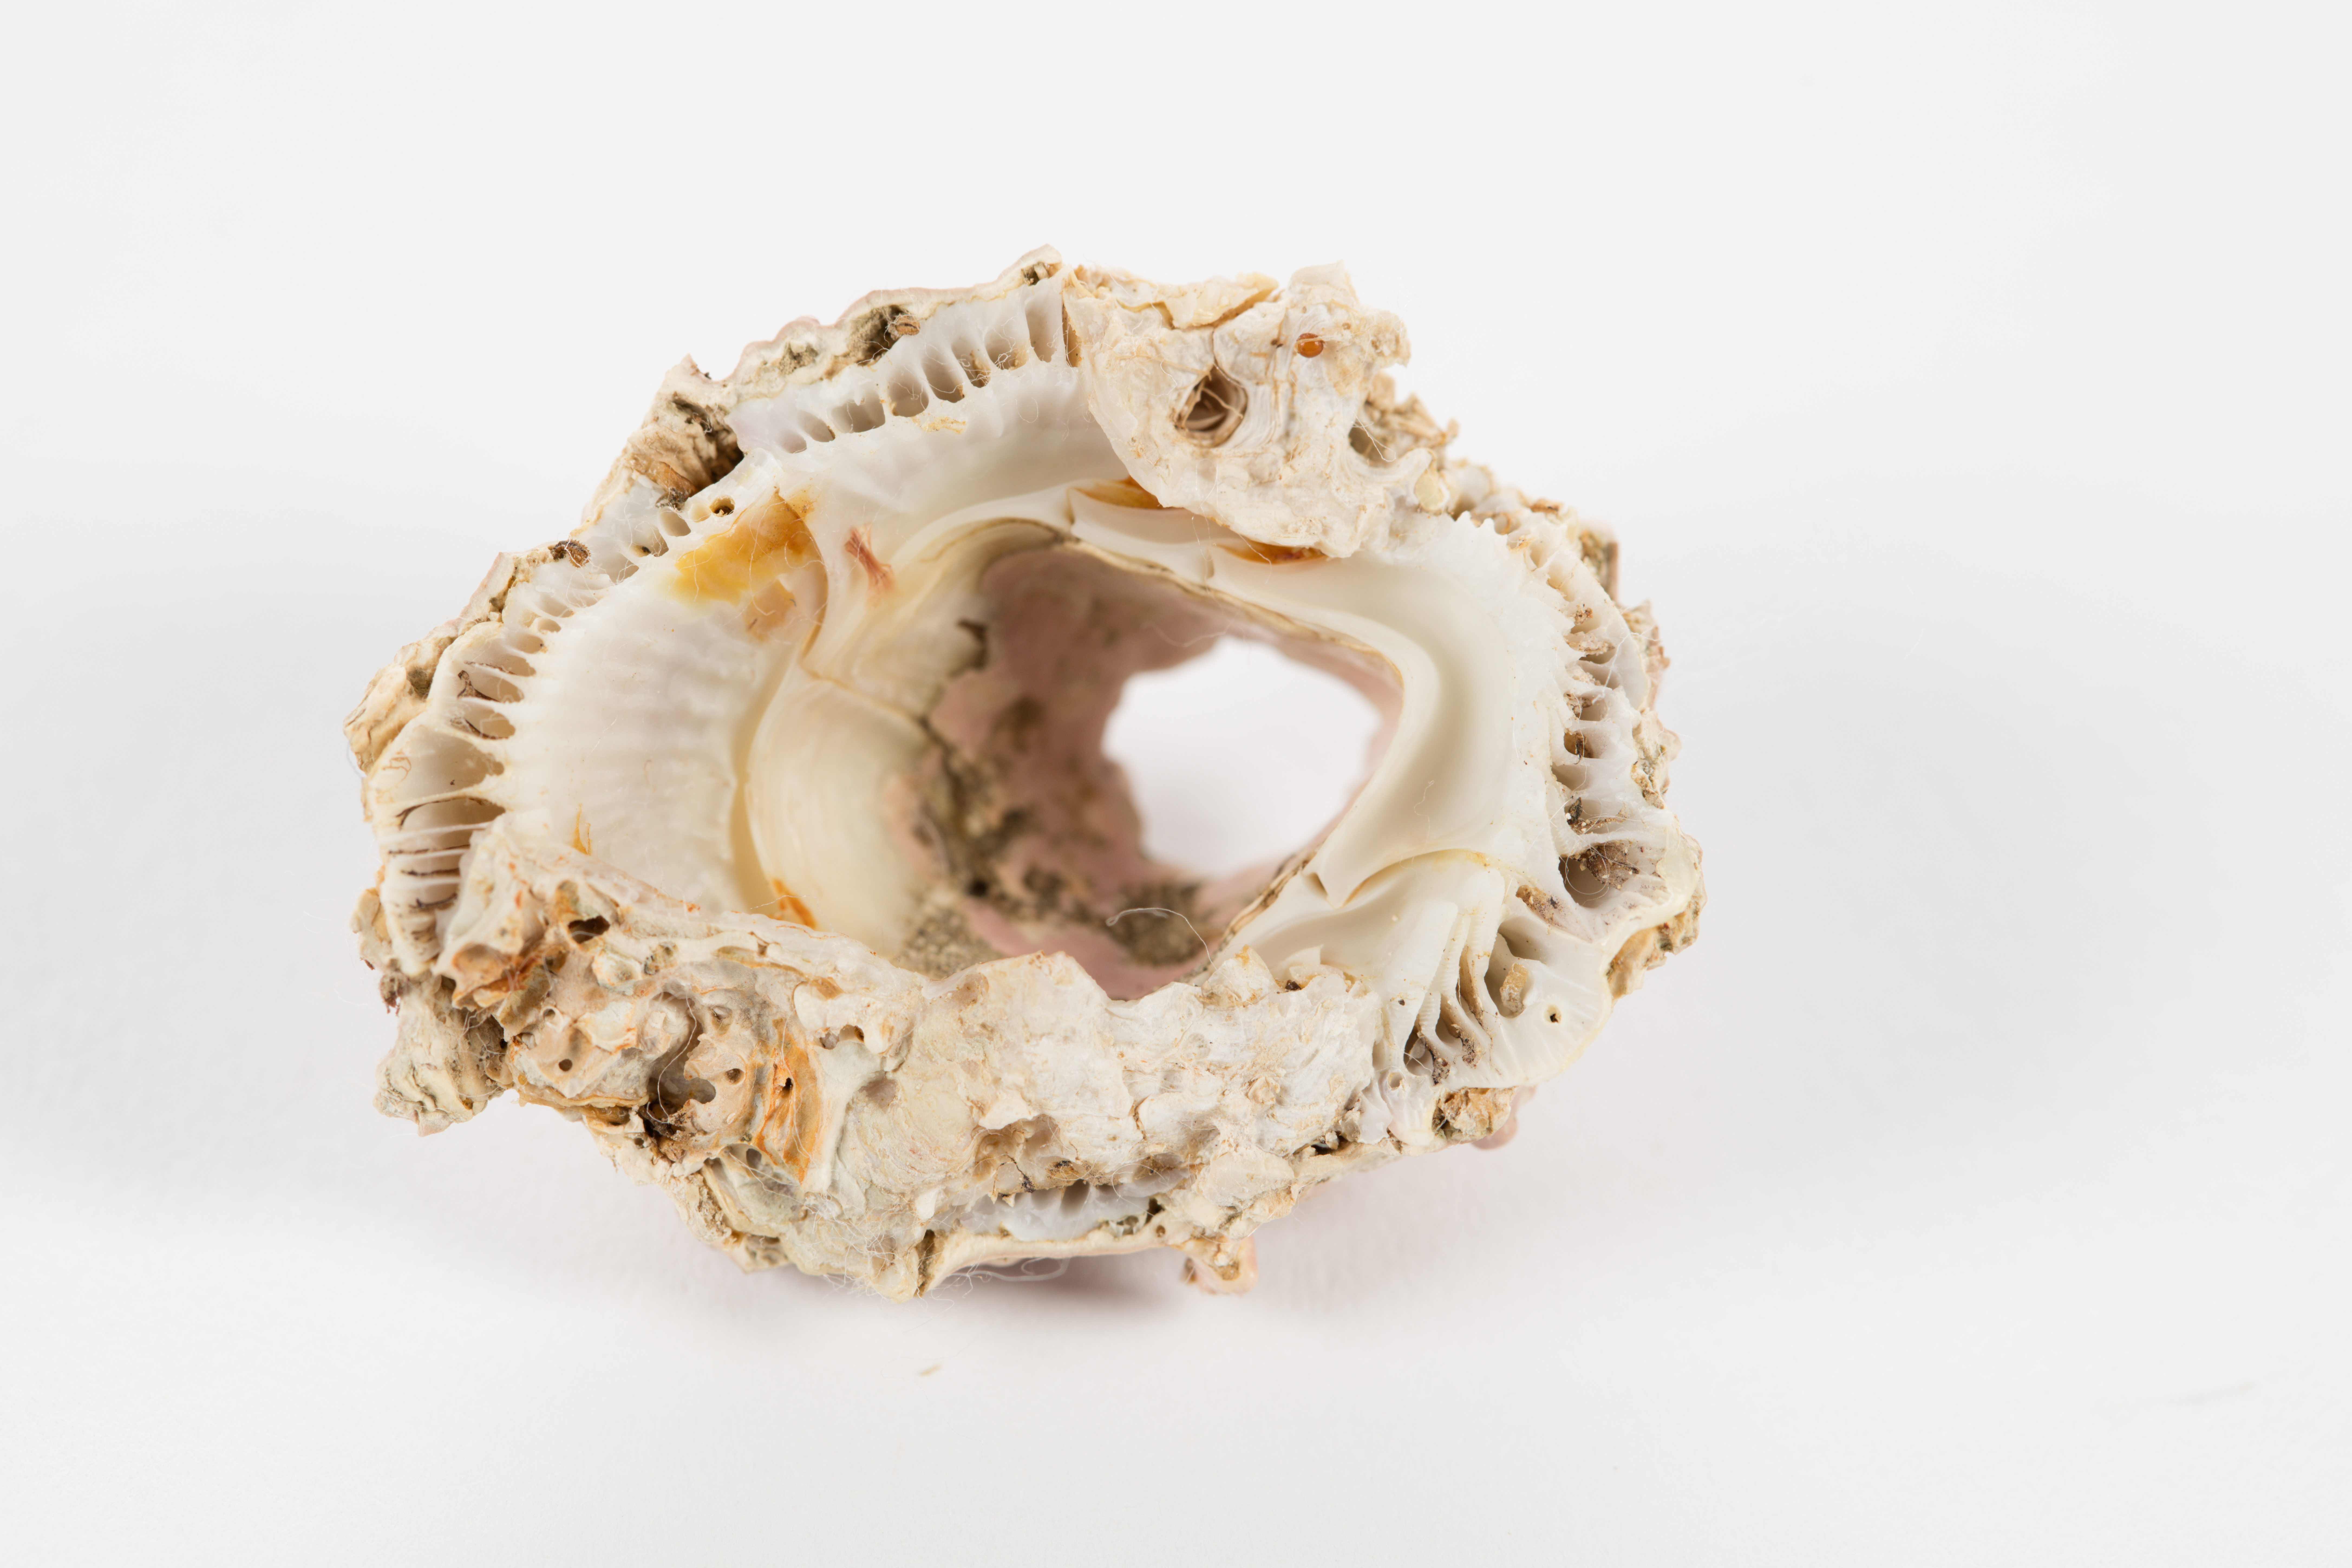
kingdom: Plantae
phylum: Rhodophyta
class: Florideophyceae
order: Corallinales
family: Hapalidiaceae
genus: Lithothamnion
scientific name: Lithothamnion
